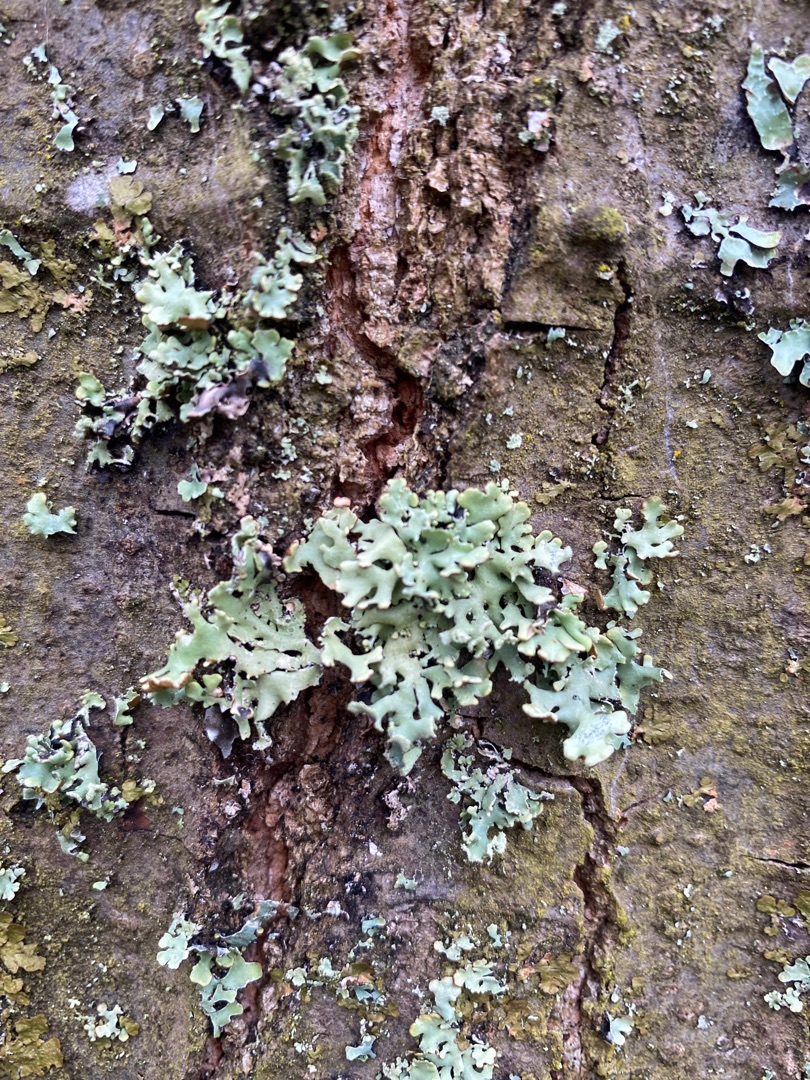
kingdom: Fungi
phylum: Ascomycota
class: Lecanoromycetes
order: Lecanorales
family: Parmeliaceae
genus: Hypogymnia
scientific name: Hypogymnia physodes
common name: Almindelig kvistlav
